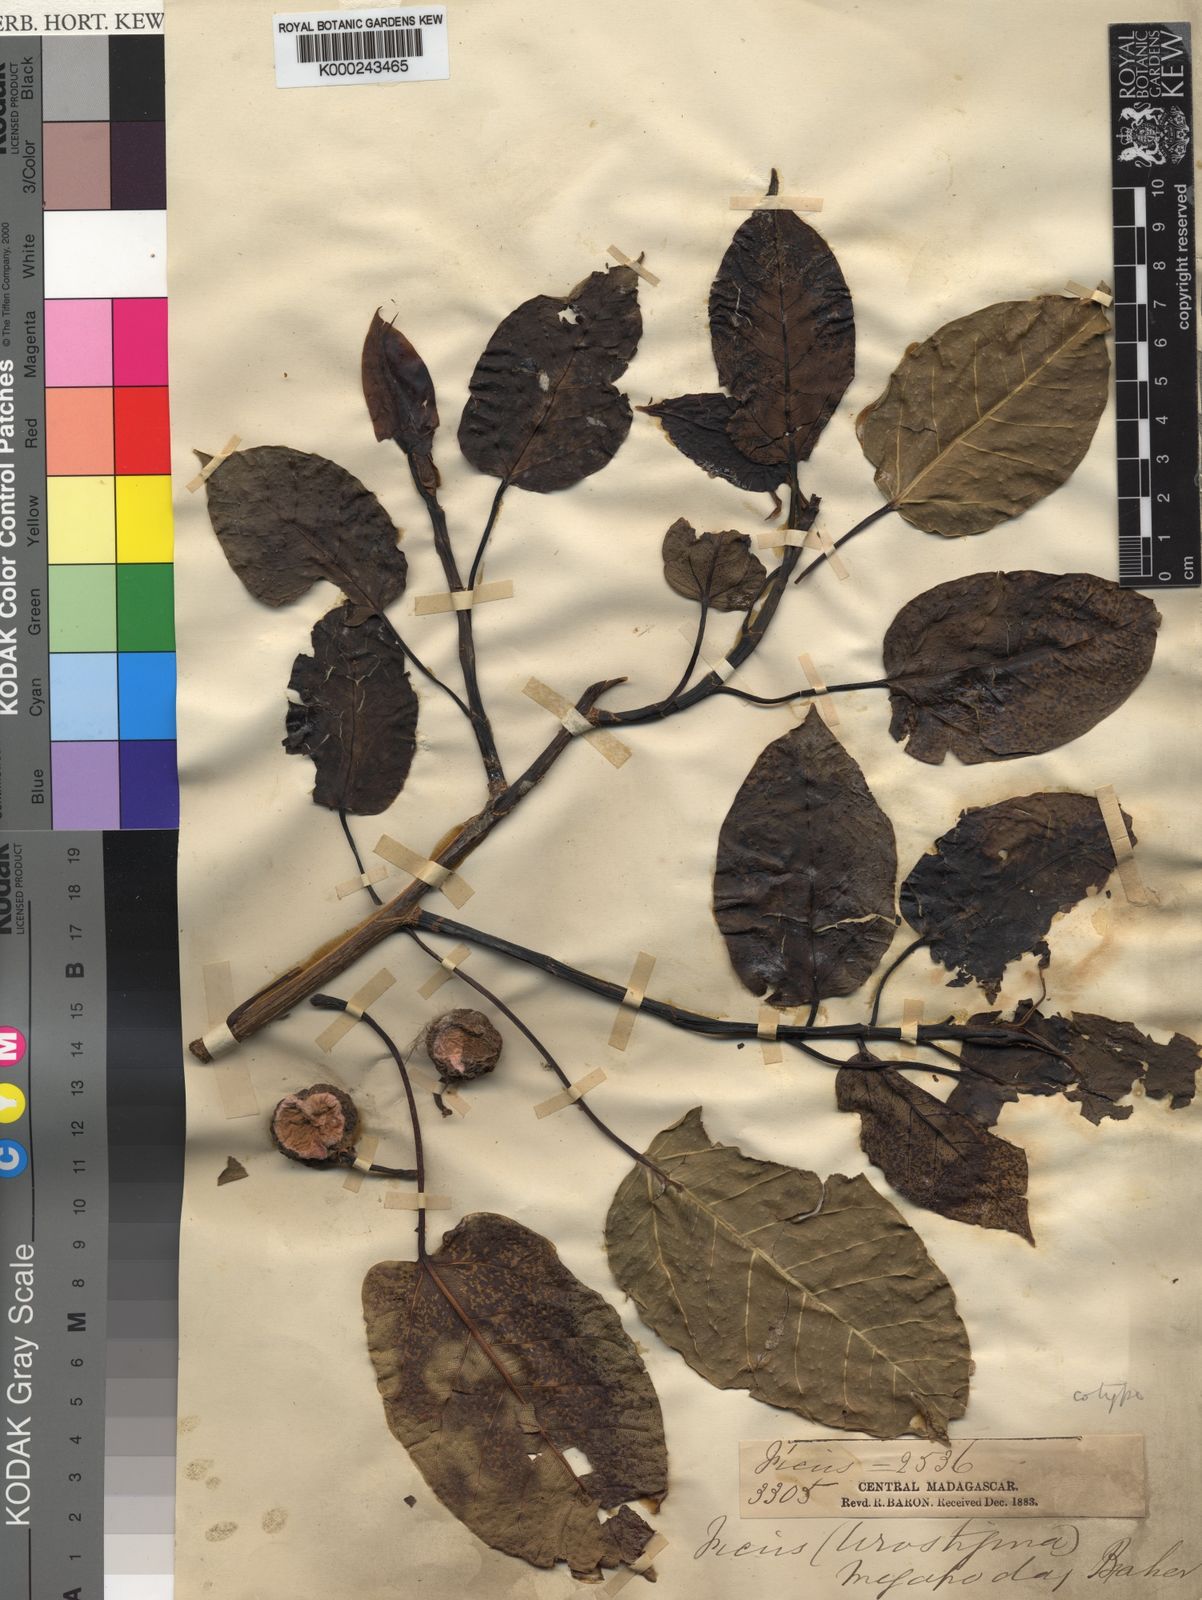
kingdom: Plantae
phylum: Tracheophyta
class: Magnoliopsida
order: Rosales
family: Moraceae
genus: Ficus
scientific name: Ficus polita
